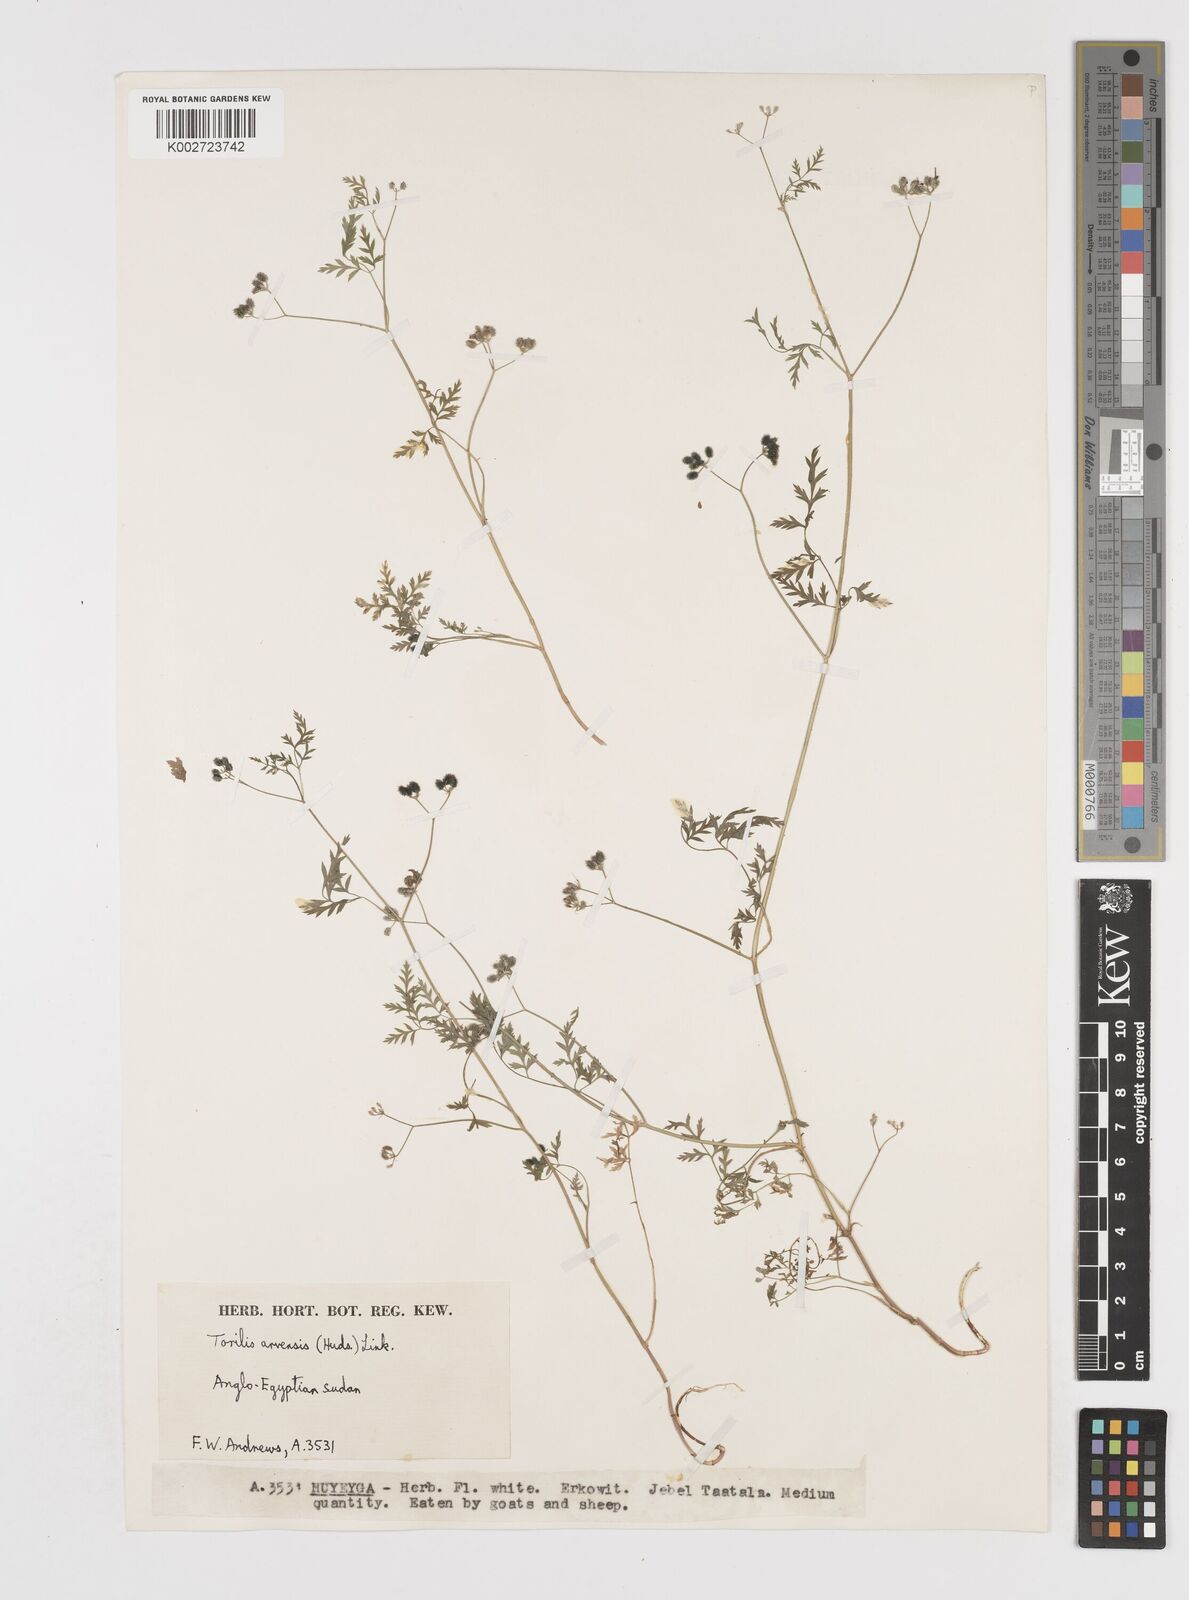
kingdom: Plantae
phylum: Tracheophyta
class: Magnoliopsida
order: Apiales
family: Apiaceae
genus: Torilis
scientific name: Torilis arvensis
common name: Spreading hedge-parsley
